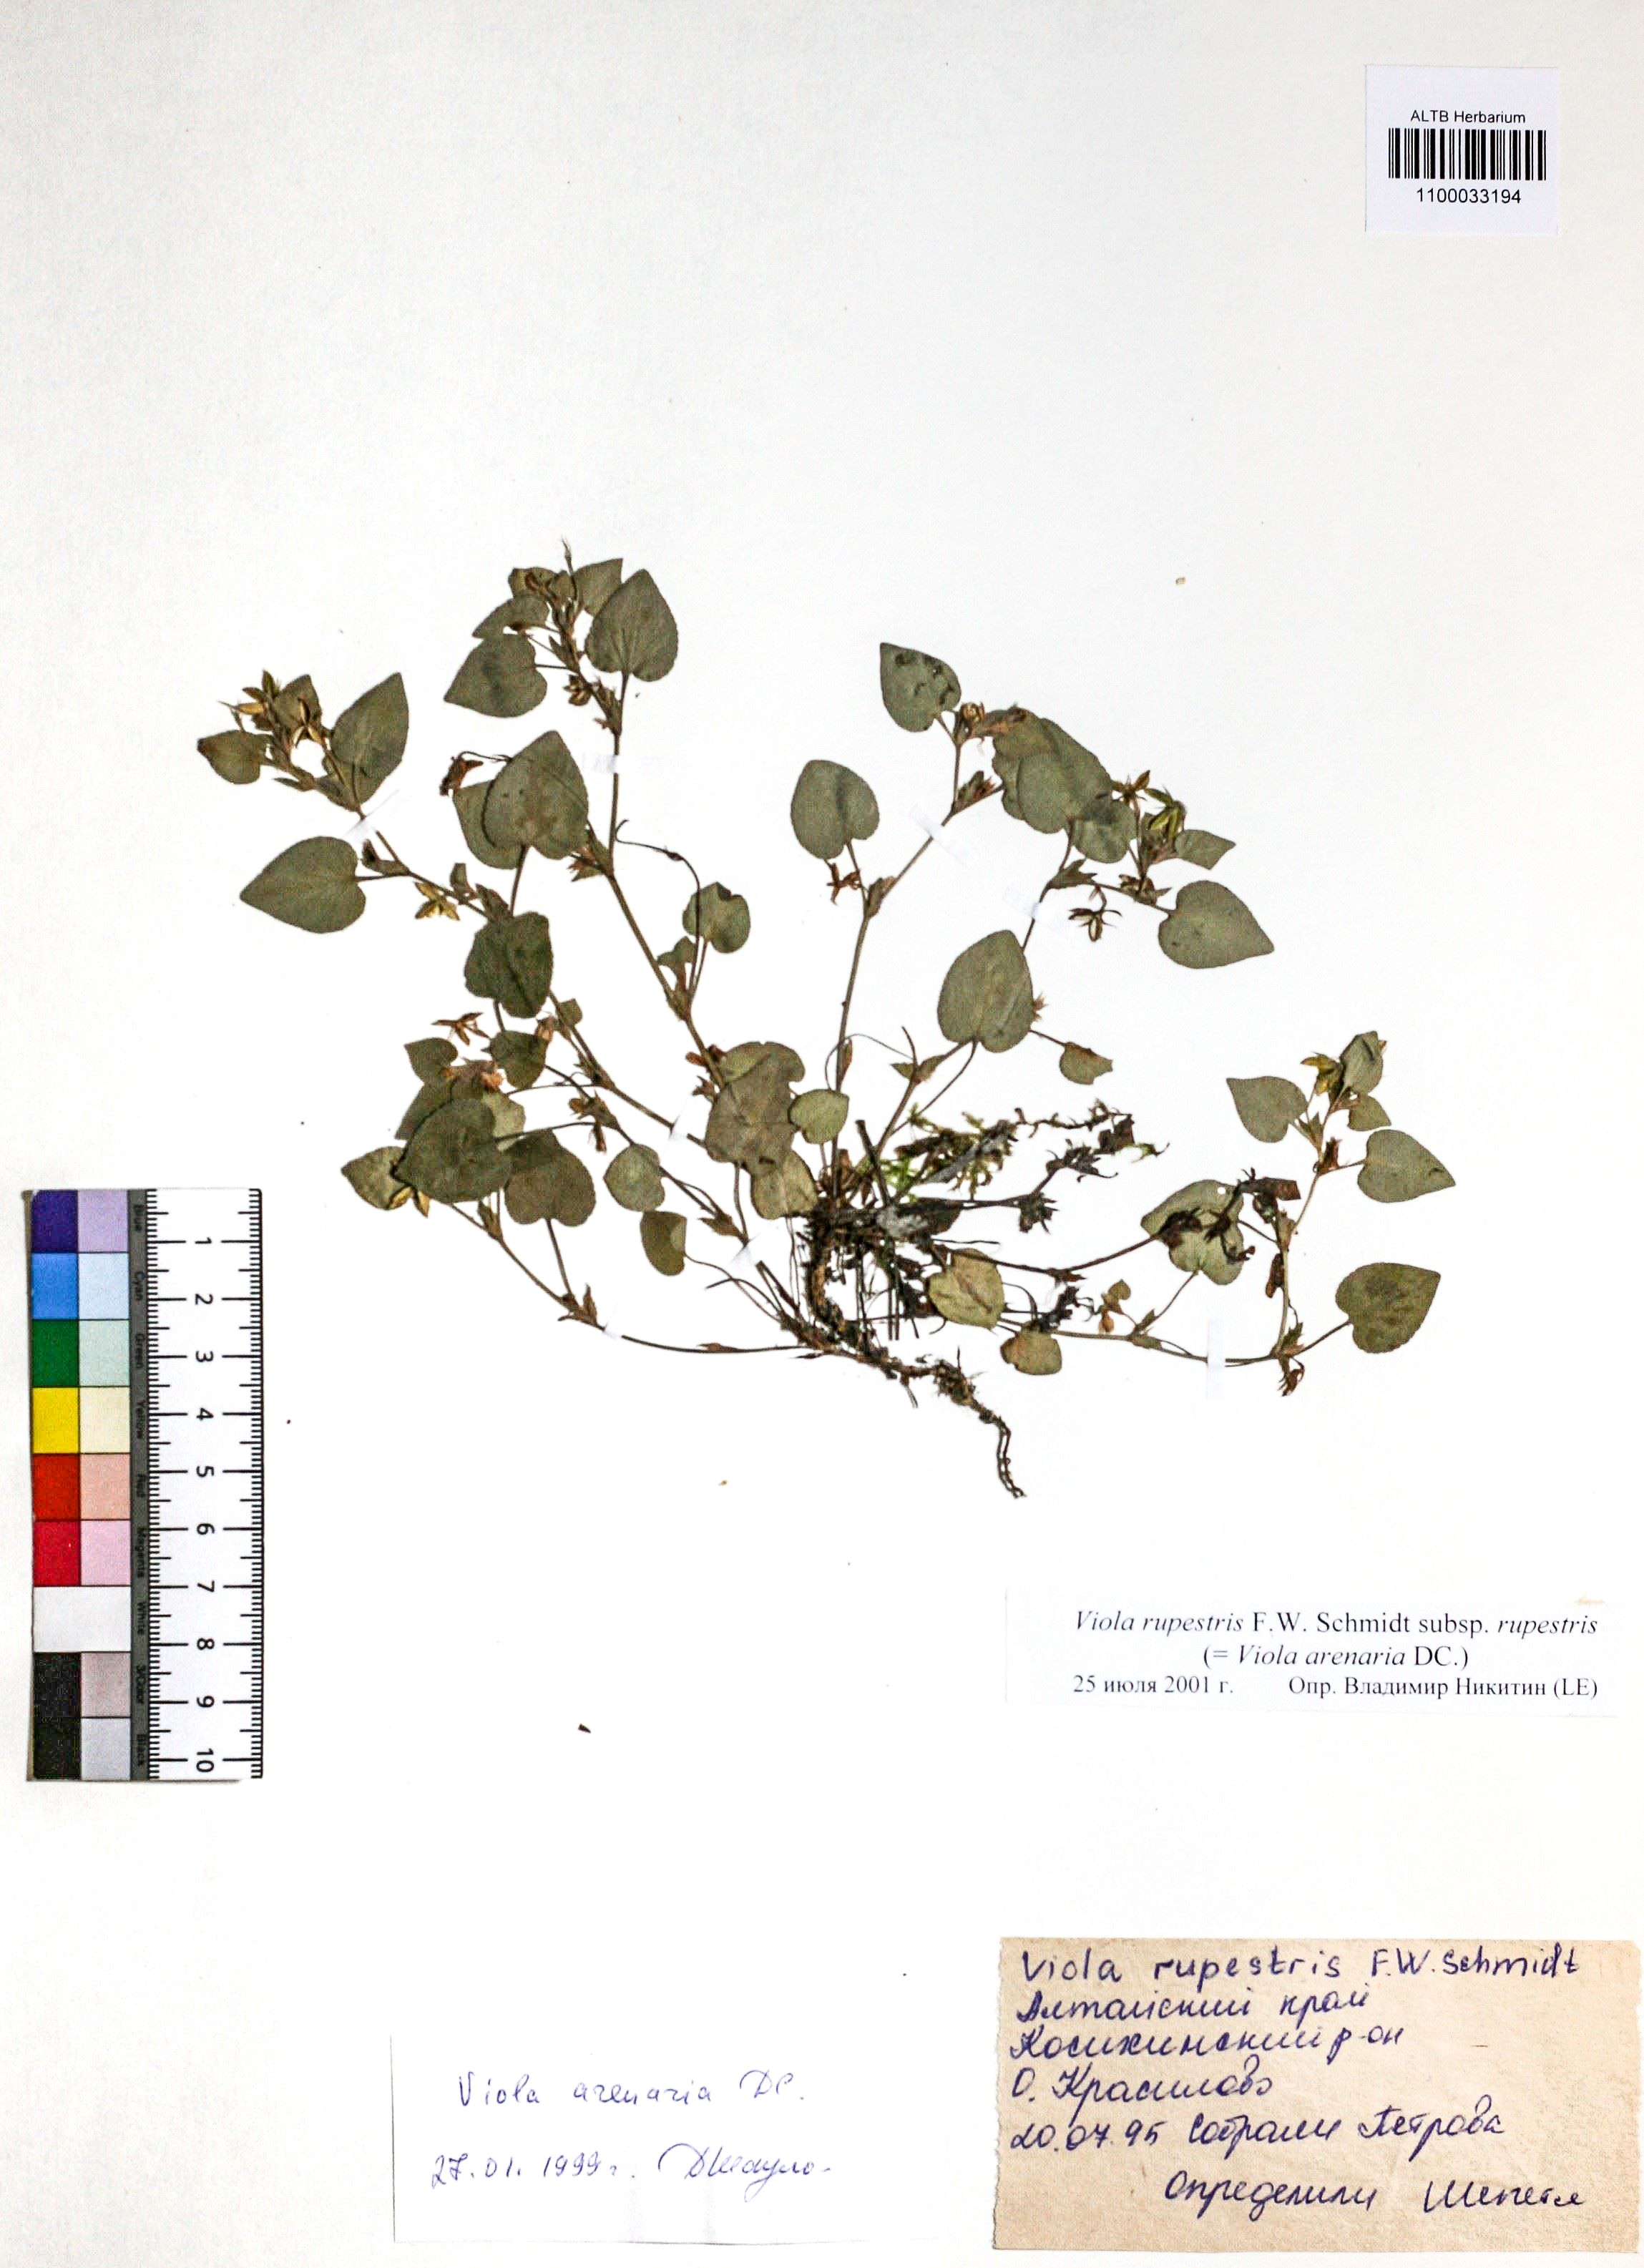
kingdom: Plantae
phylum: Tracheophyta
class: Magnoliopsida
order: Malpighiales
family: Violaceae
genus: Viola
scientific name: Viola rupestris
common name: Teesdale violet
